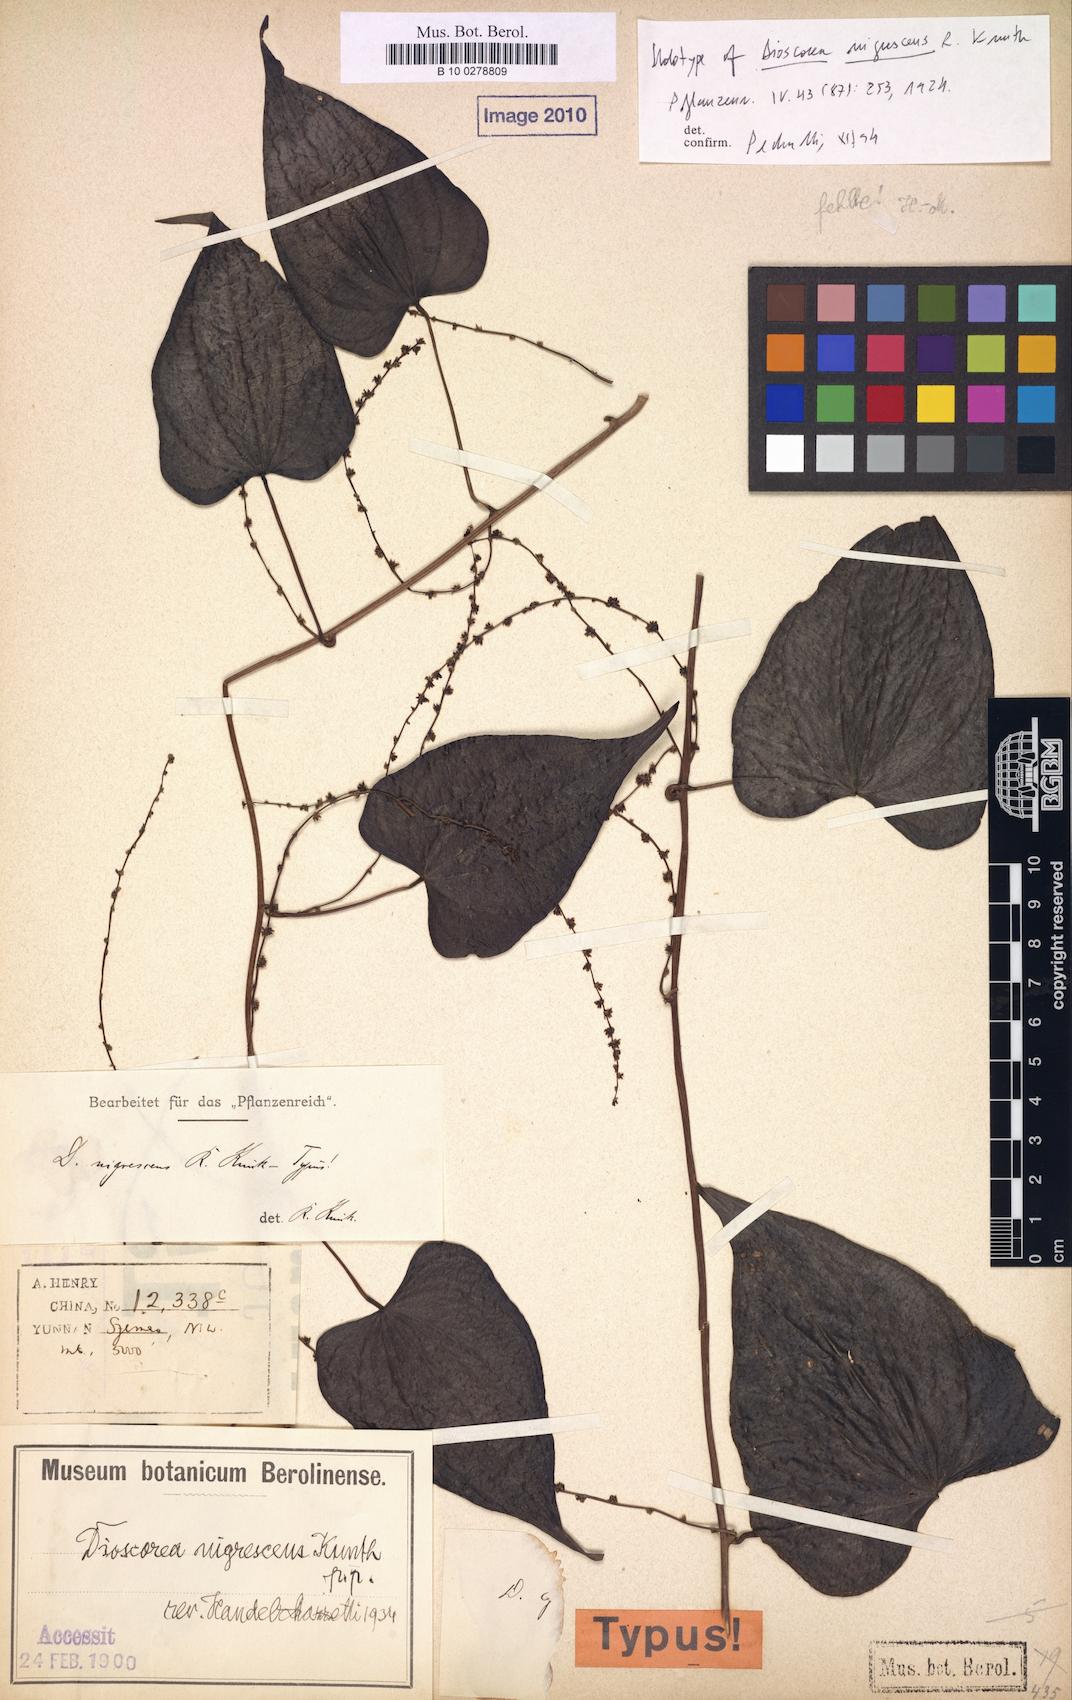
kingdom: Plantae
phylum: Tracheophyta
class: Liliopsida
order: Dioscoreales
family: Dioscoreaceae
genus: Dioscorea
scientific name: Dioscorea collettii
